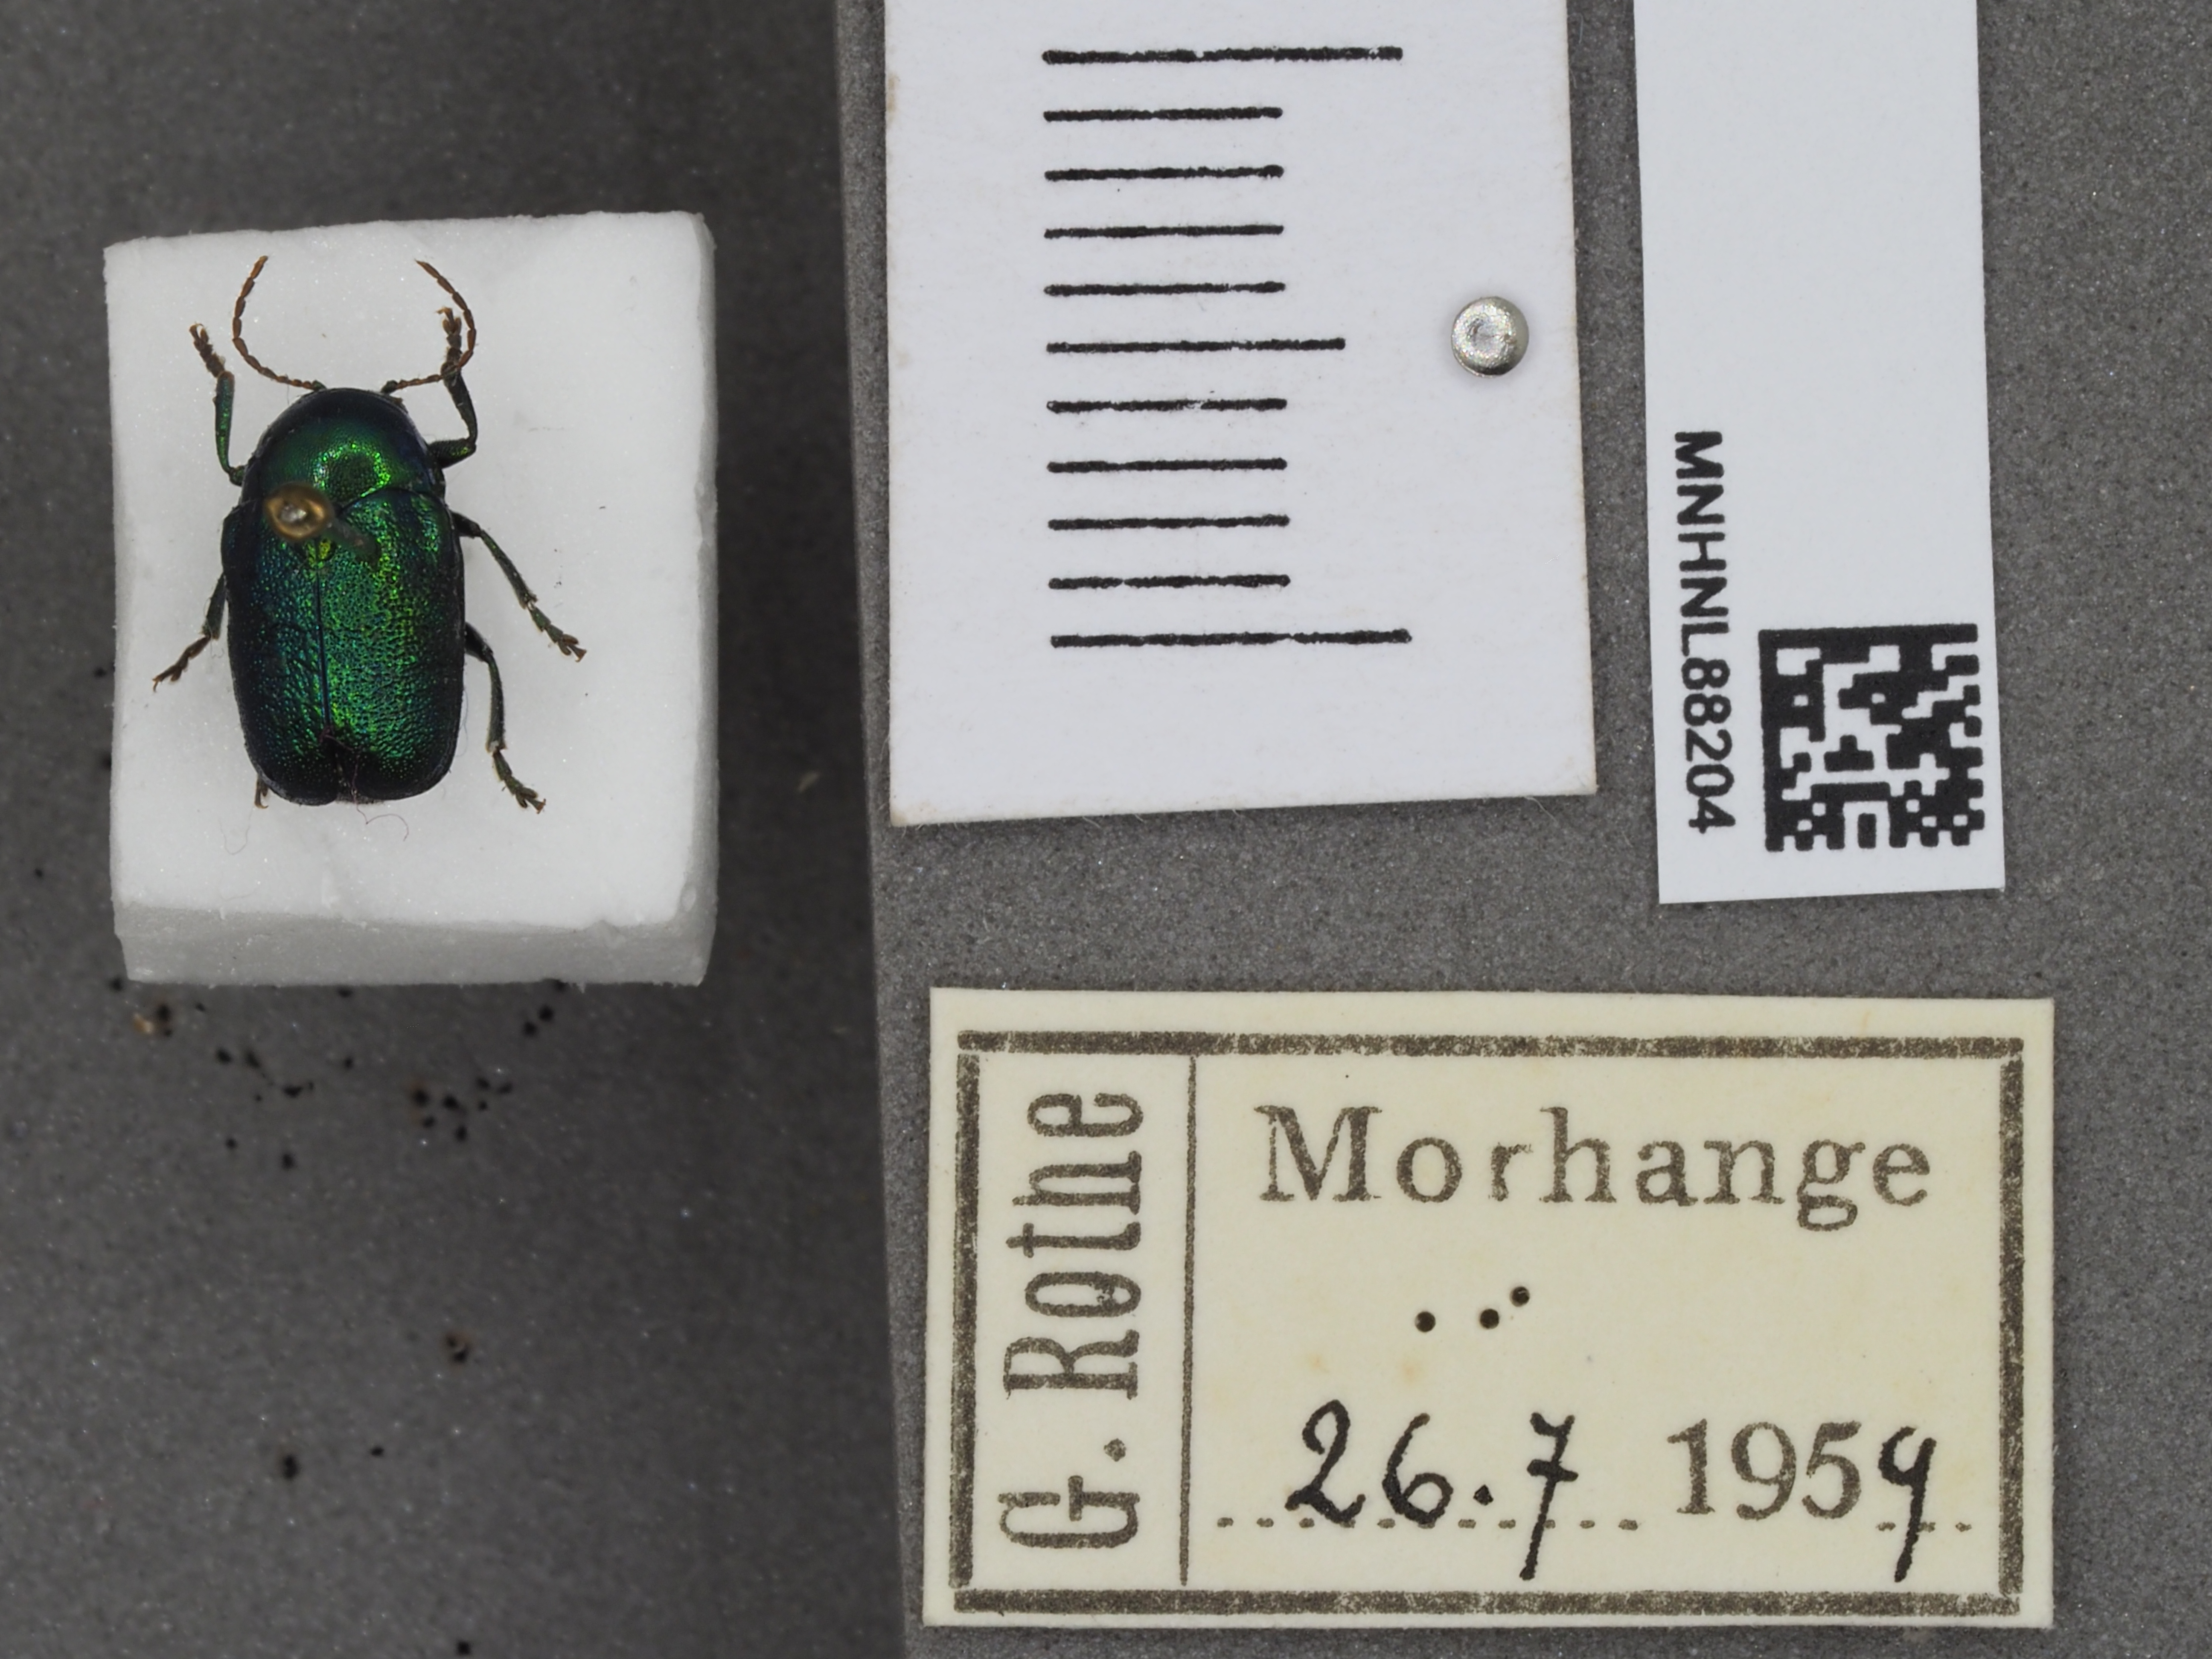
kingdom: Animalia
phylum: Arthropoda
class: Insecta
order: Coleoptera
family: Chrysomelidae
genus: Cryptocephalus
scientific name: Cryptocephalus sericeus
